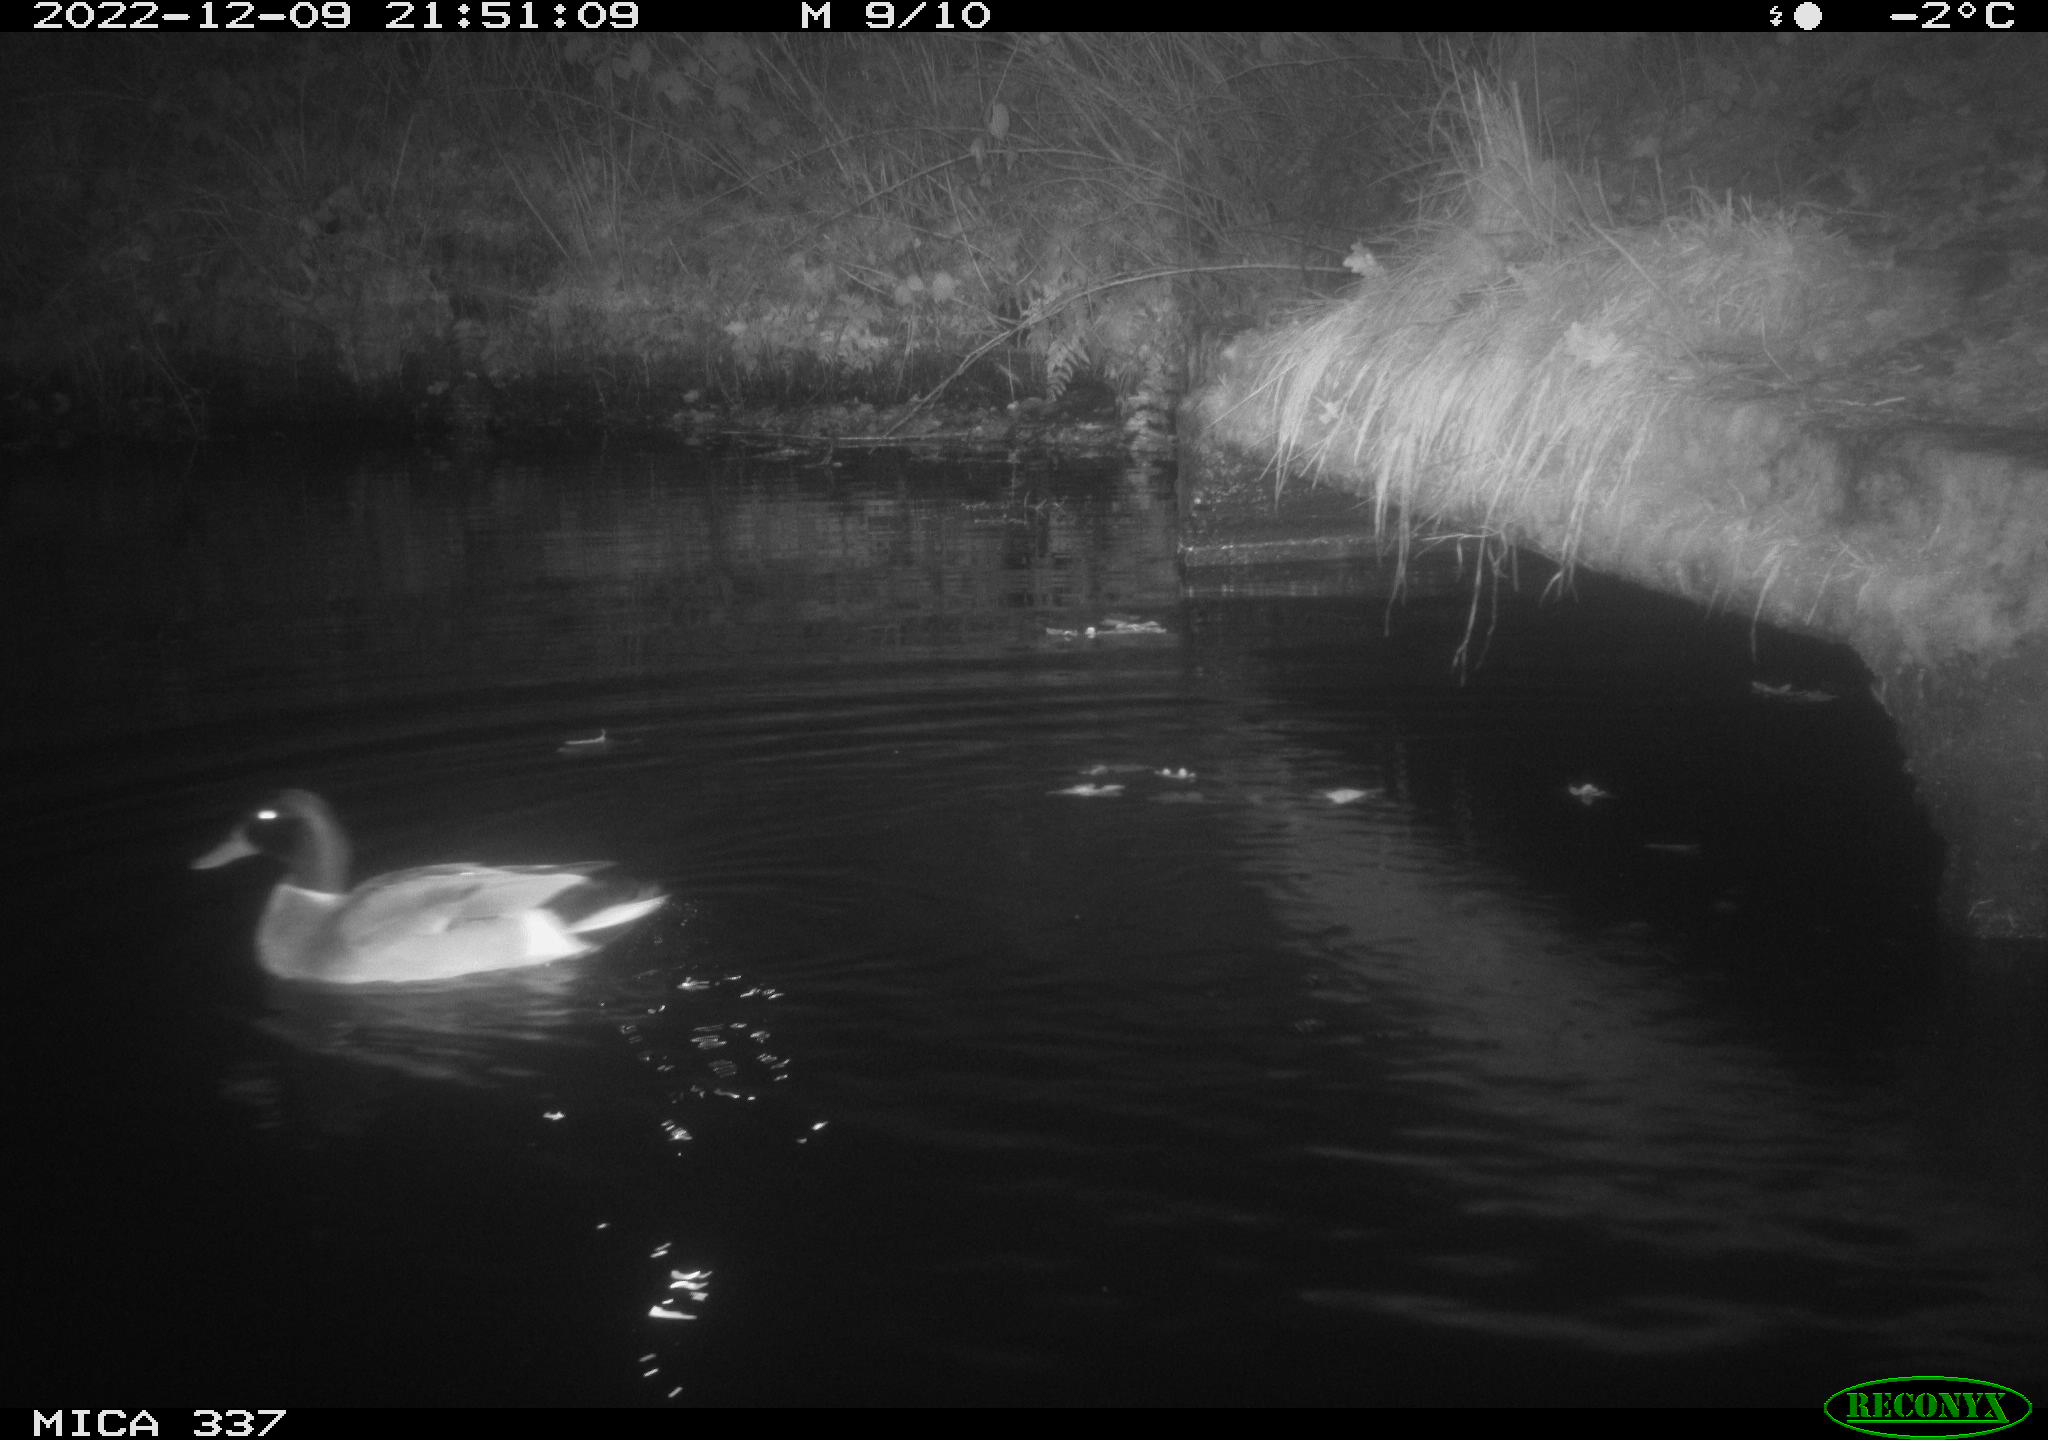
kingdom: Animalia
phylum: Chordata
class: Mammalia
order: Rodentia
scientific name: Rodentia
